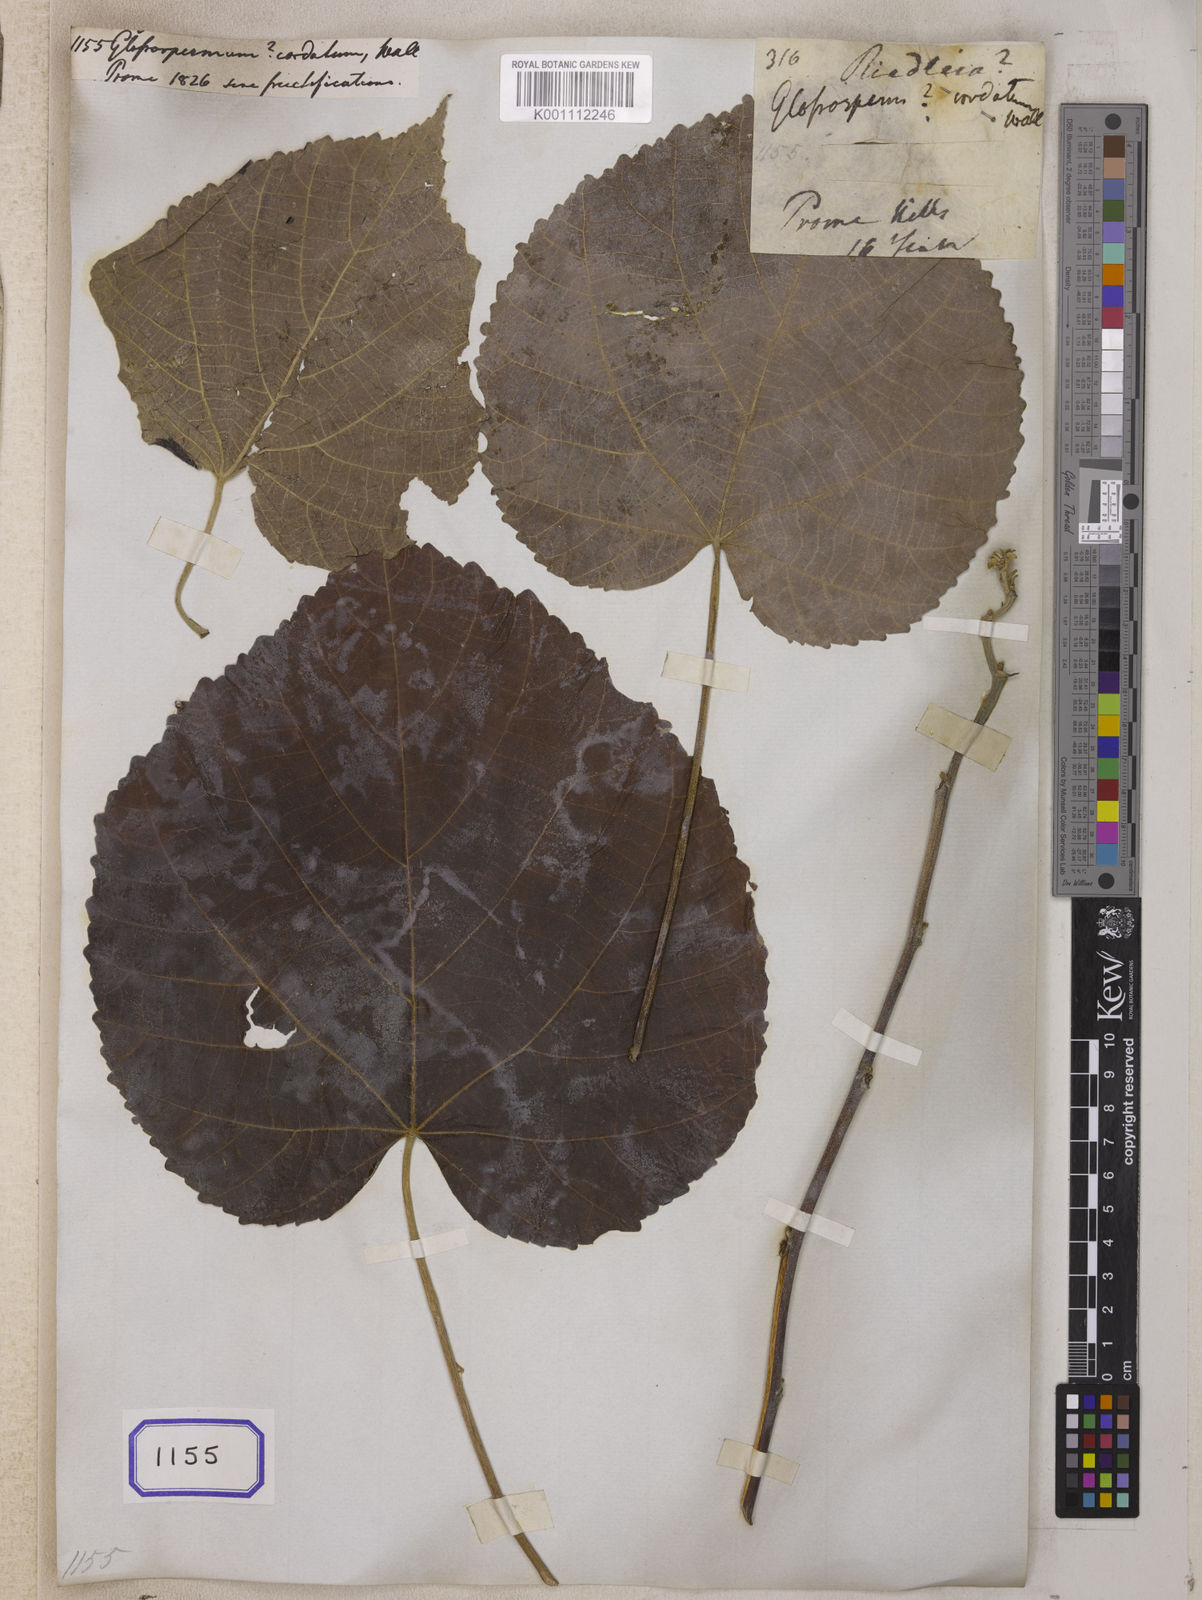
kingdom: Plantae
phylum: Tracheophyta
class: Magnoliopsida
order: Malvales
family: Malvaceae
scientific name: Malvaceae
